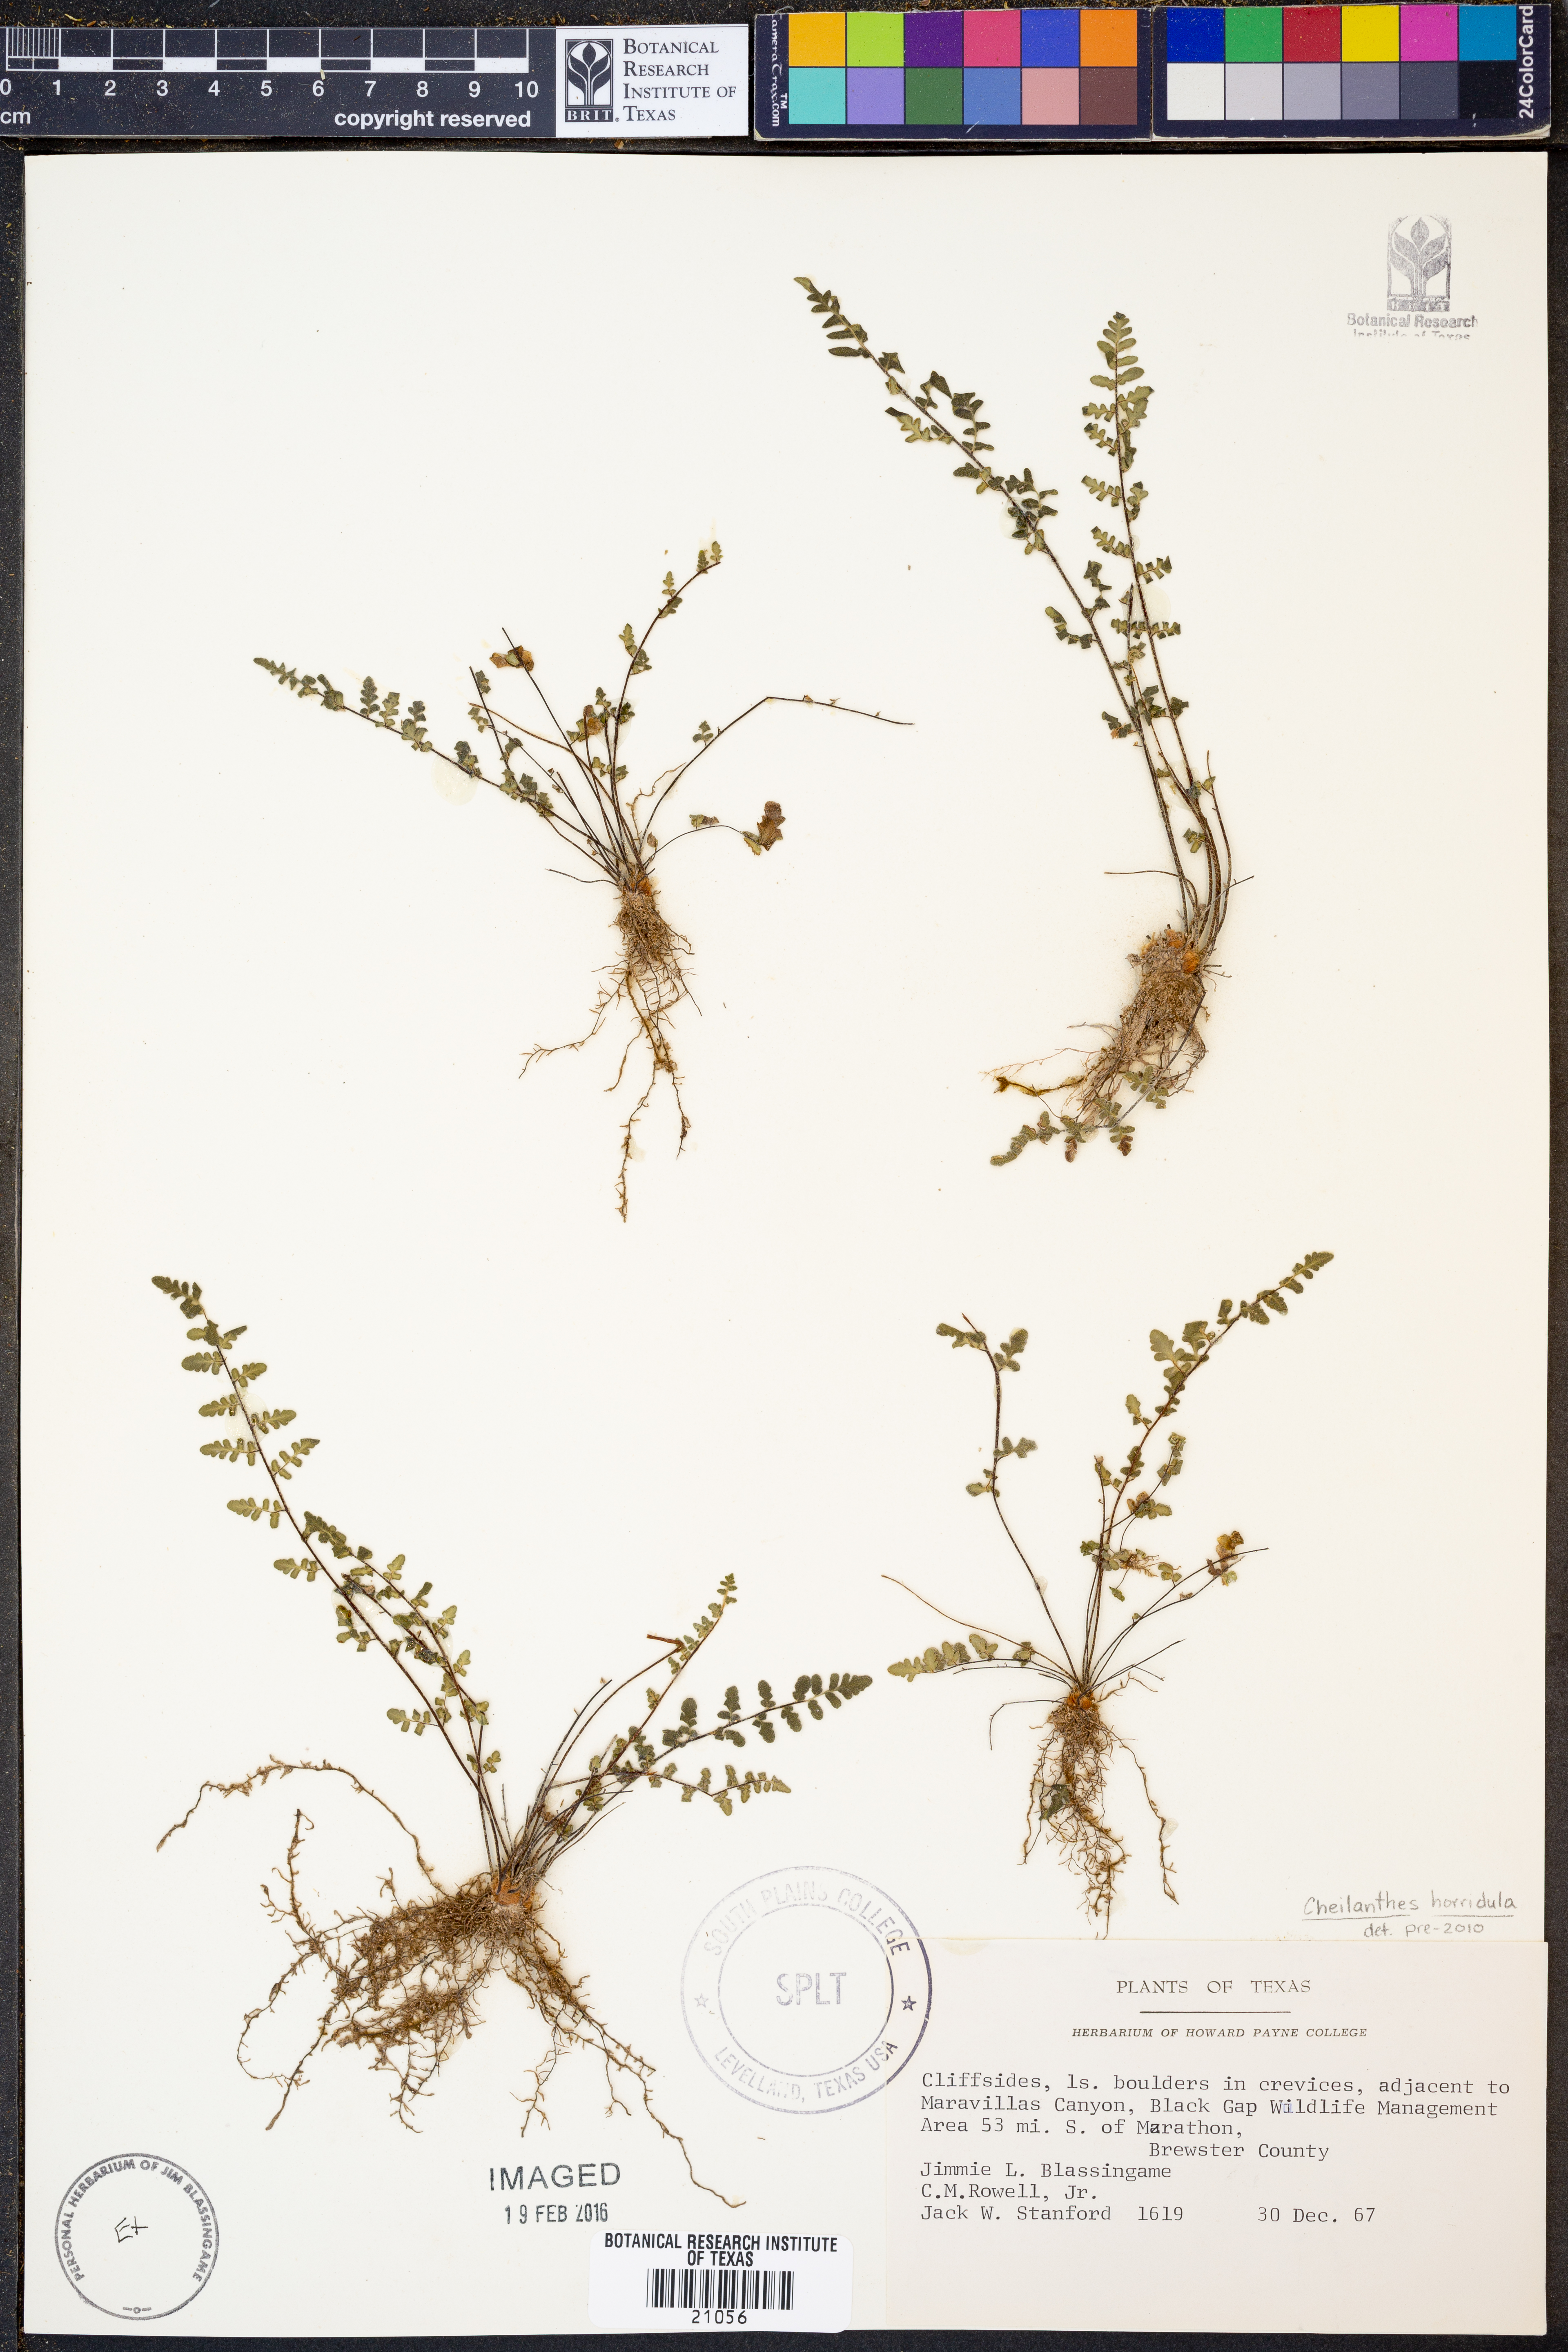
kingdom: Plantae
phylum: Tracheophyta
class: Polypodiopsida
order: Polypodiales
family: Pteridaceae
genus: Myriopteris
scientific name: Myriopteris scabra
